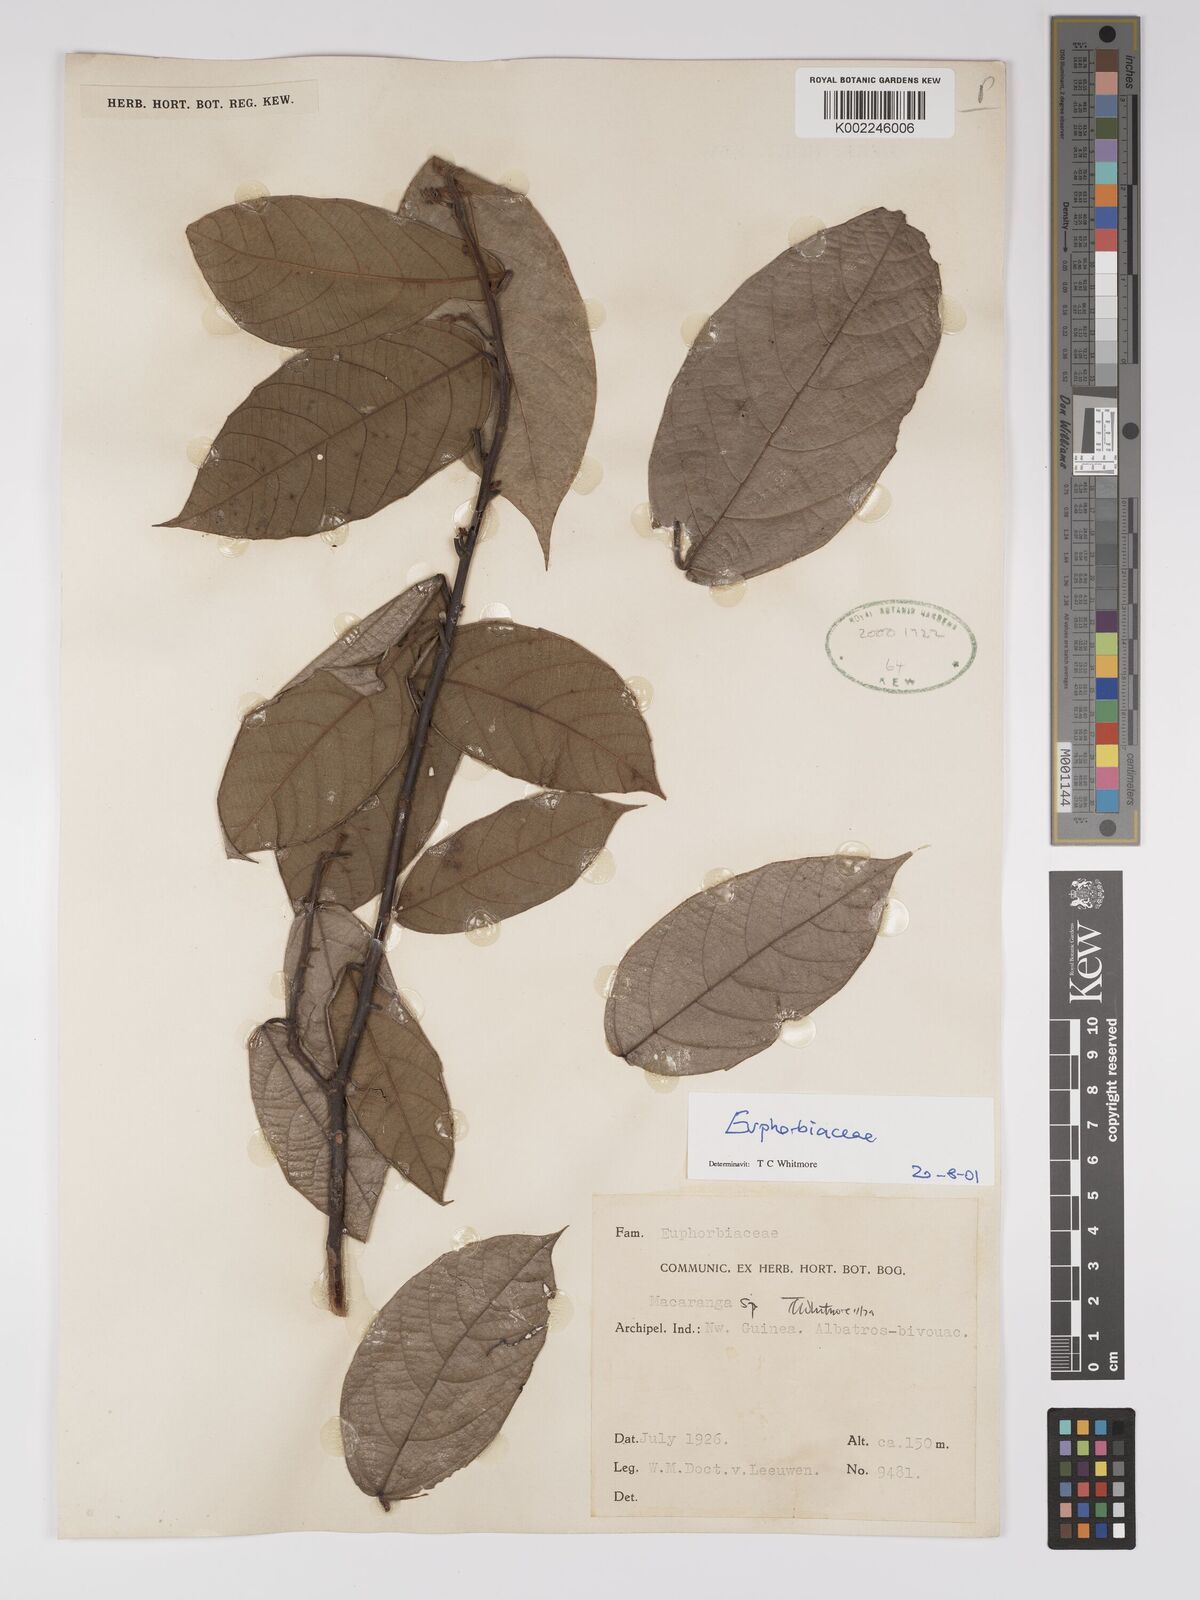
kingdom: Plantae
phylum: Tracheophyta
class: Magnoliopsida
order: Malpighiales
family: Euphorbiaceae
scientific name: Euphorbiaceae
